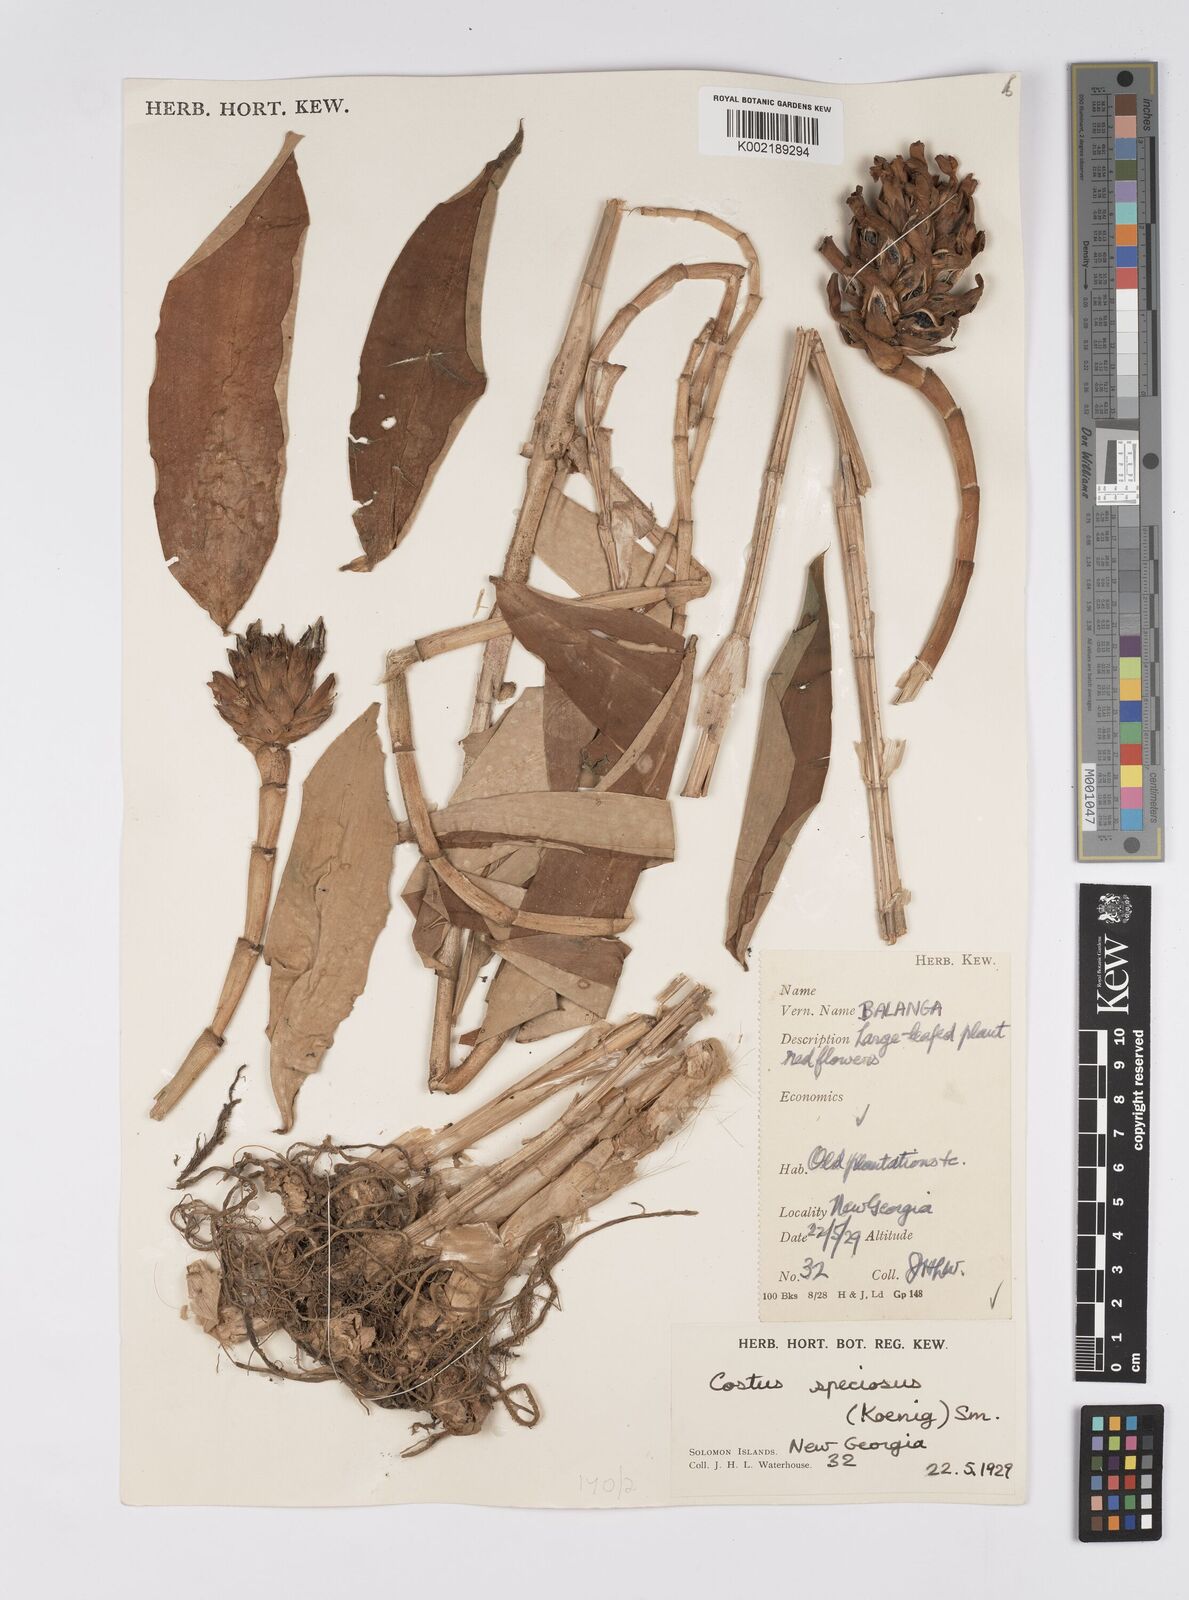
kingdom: Plantae
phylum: Tracheophyta
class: Liliopsida
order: Zingiberales
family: Costaceae
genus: Hellenia
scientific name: Hellenia speciosa
